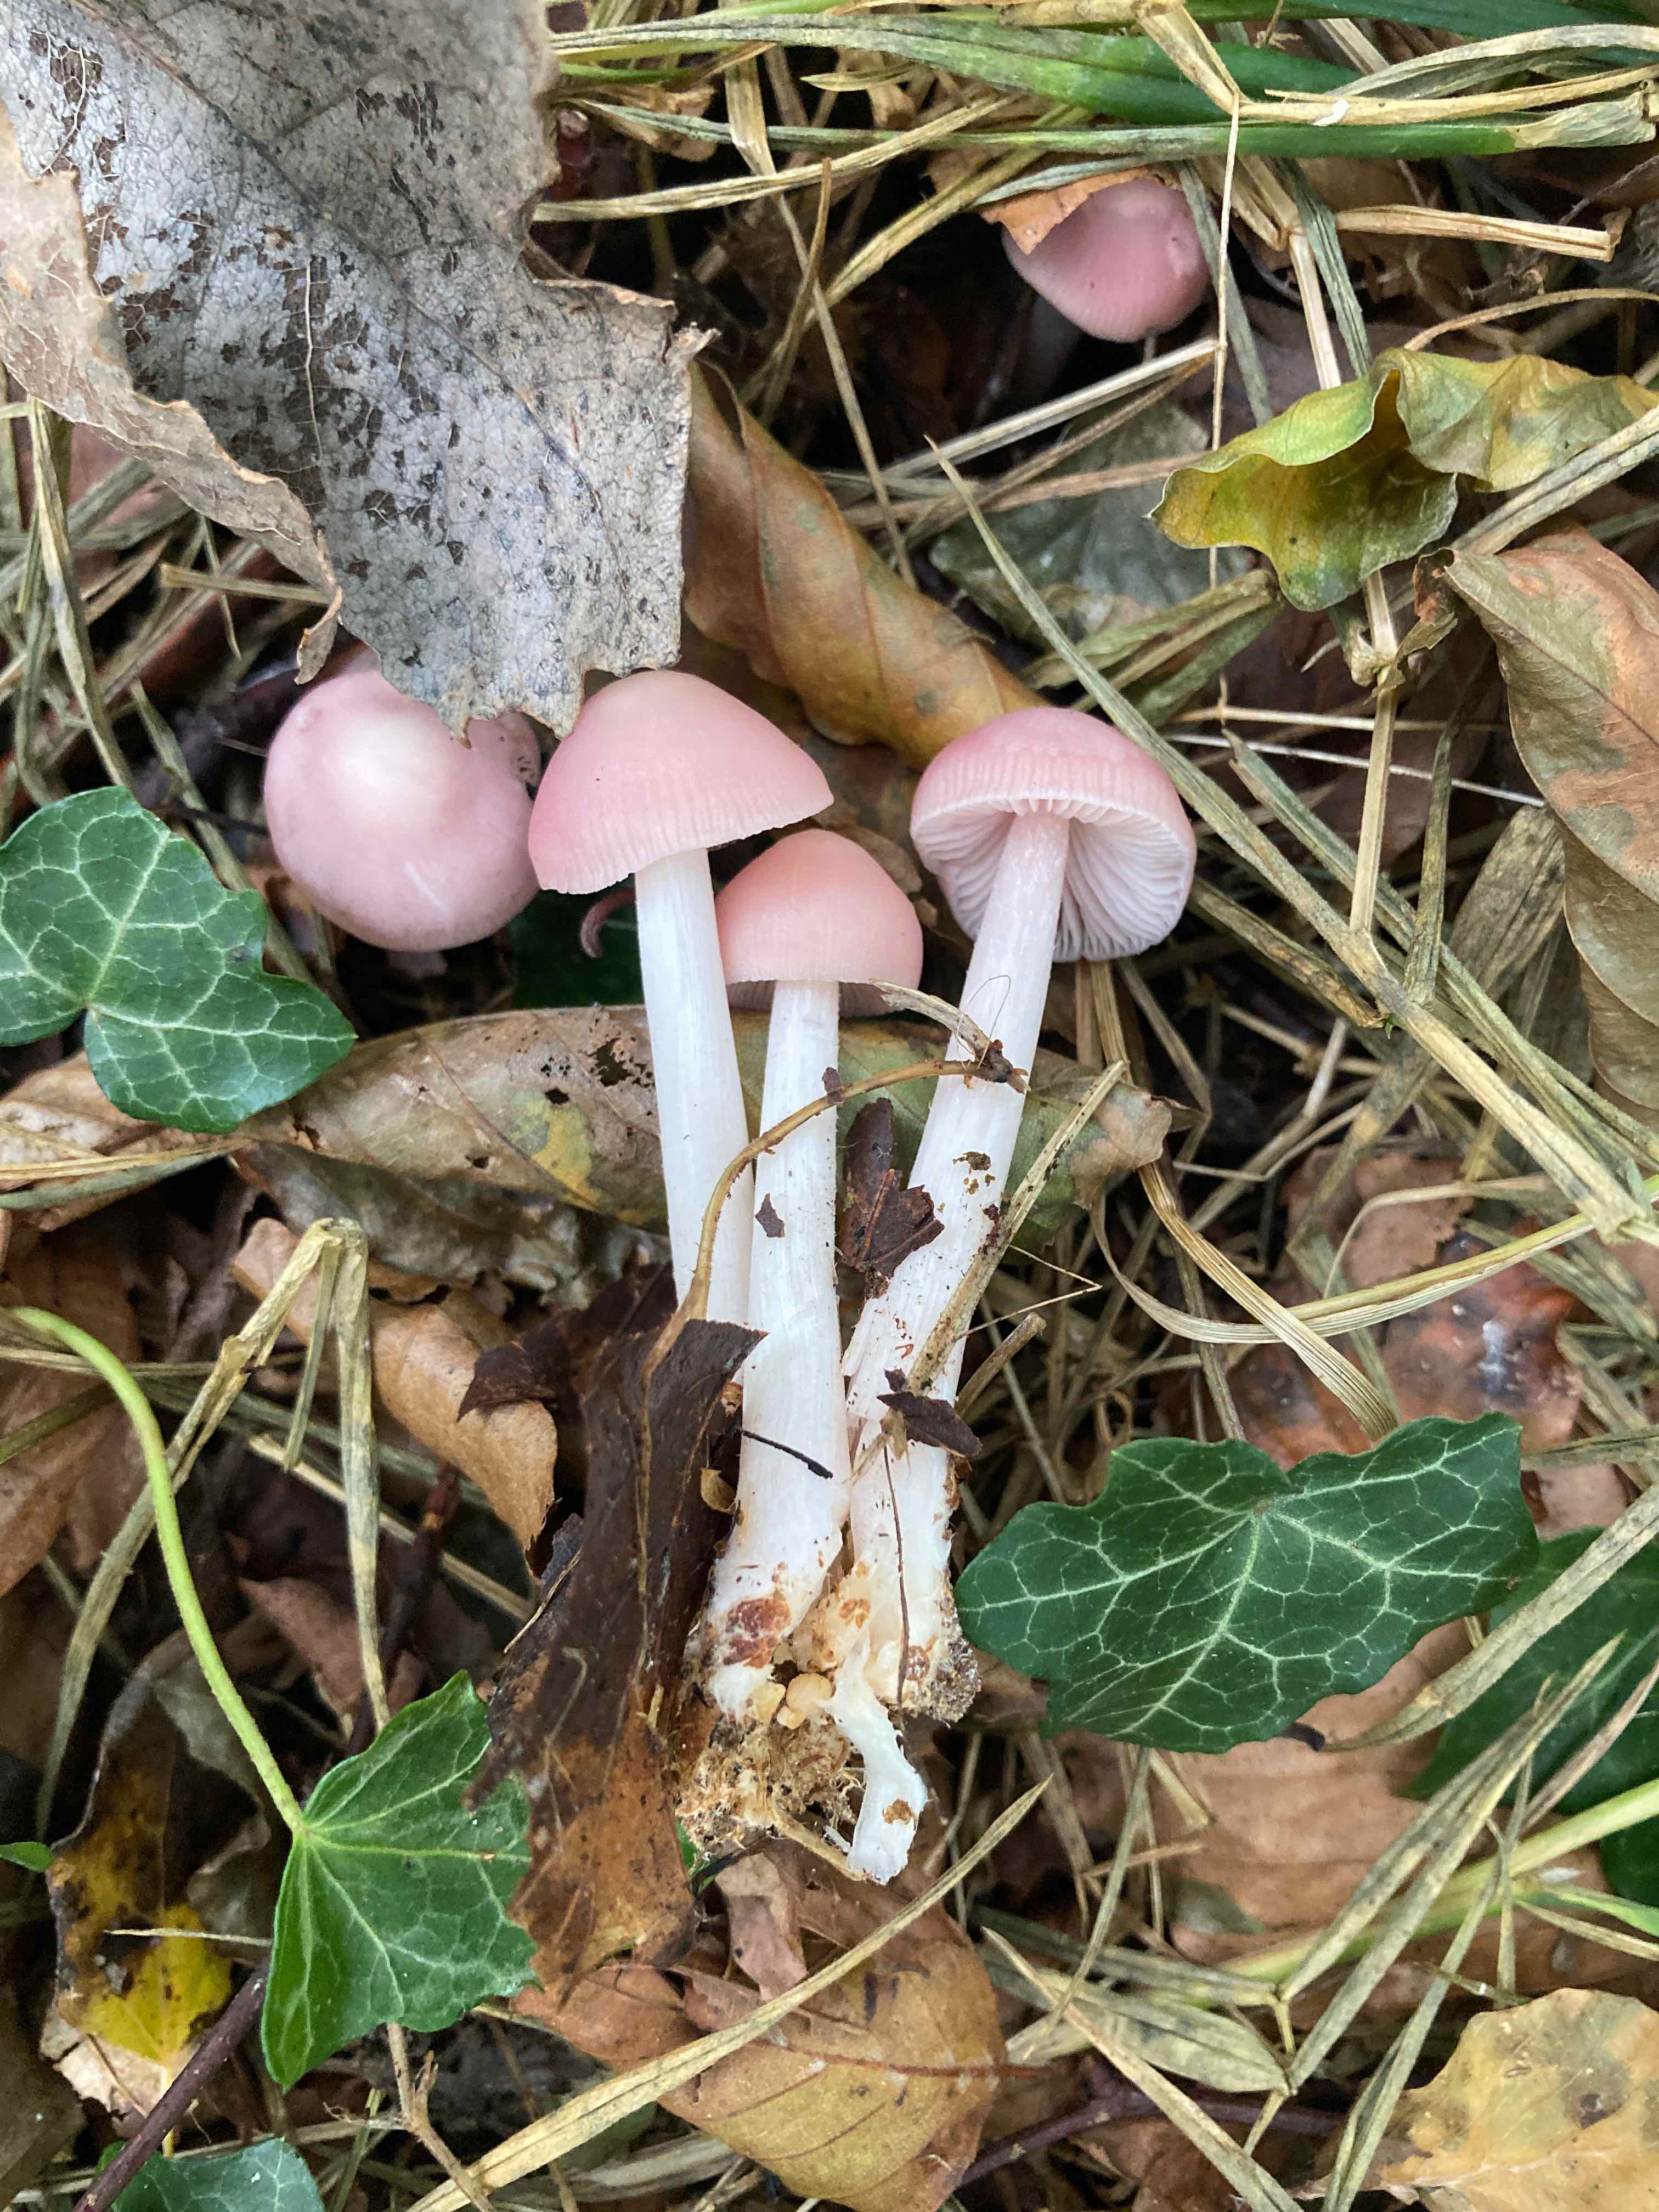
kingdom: Fungi
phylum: Basidiomycota
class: Agaricomycetes
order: Agaricales
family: Mycenaceae
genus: Mycena
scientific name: Mycena rosea
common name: rosa huesvamp
